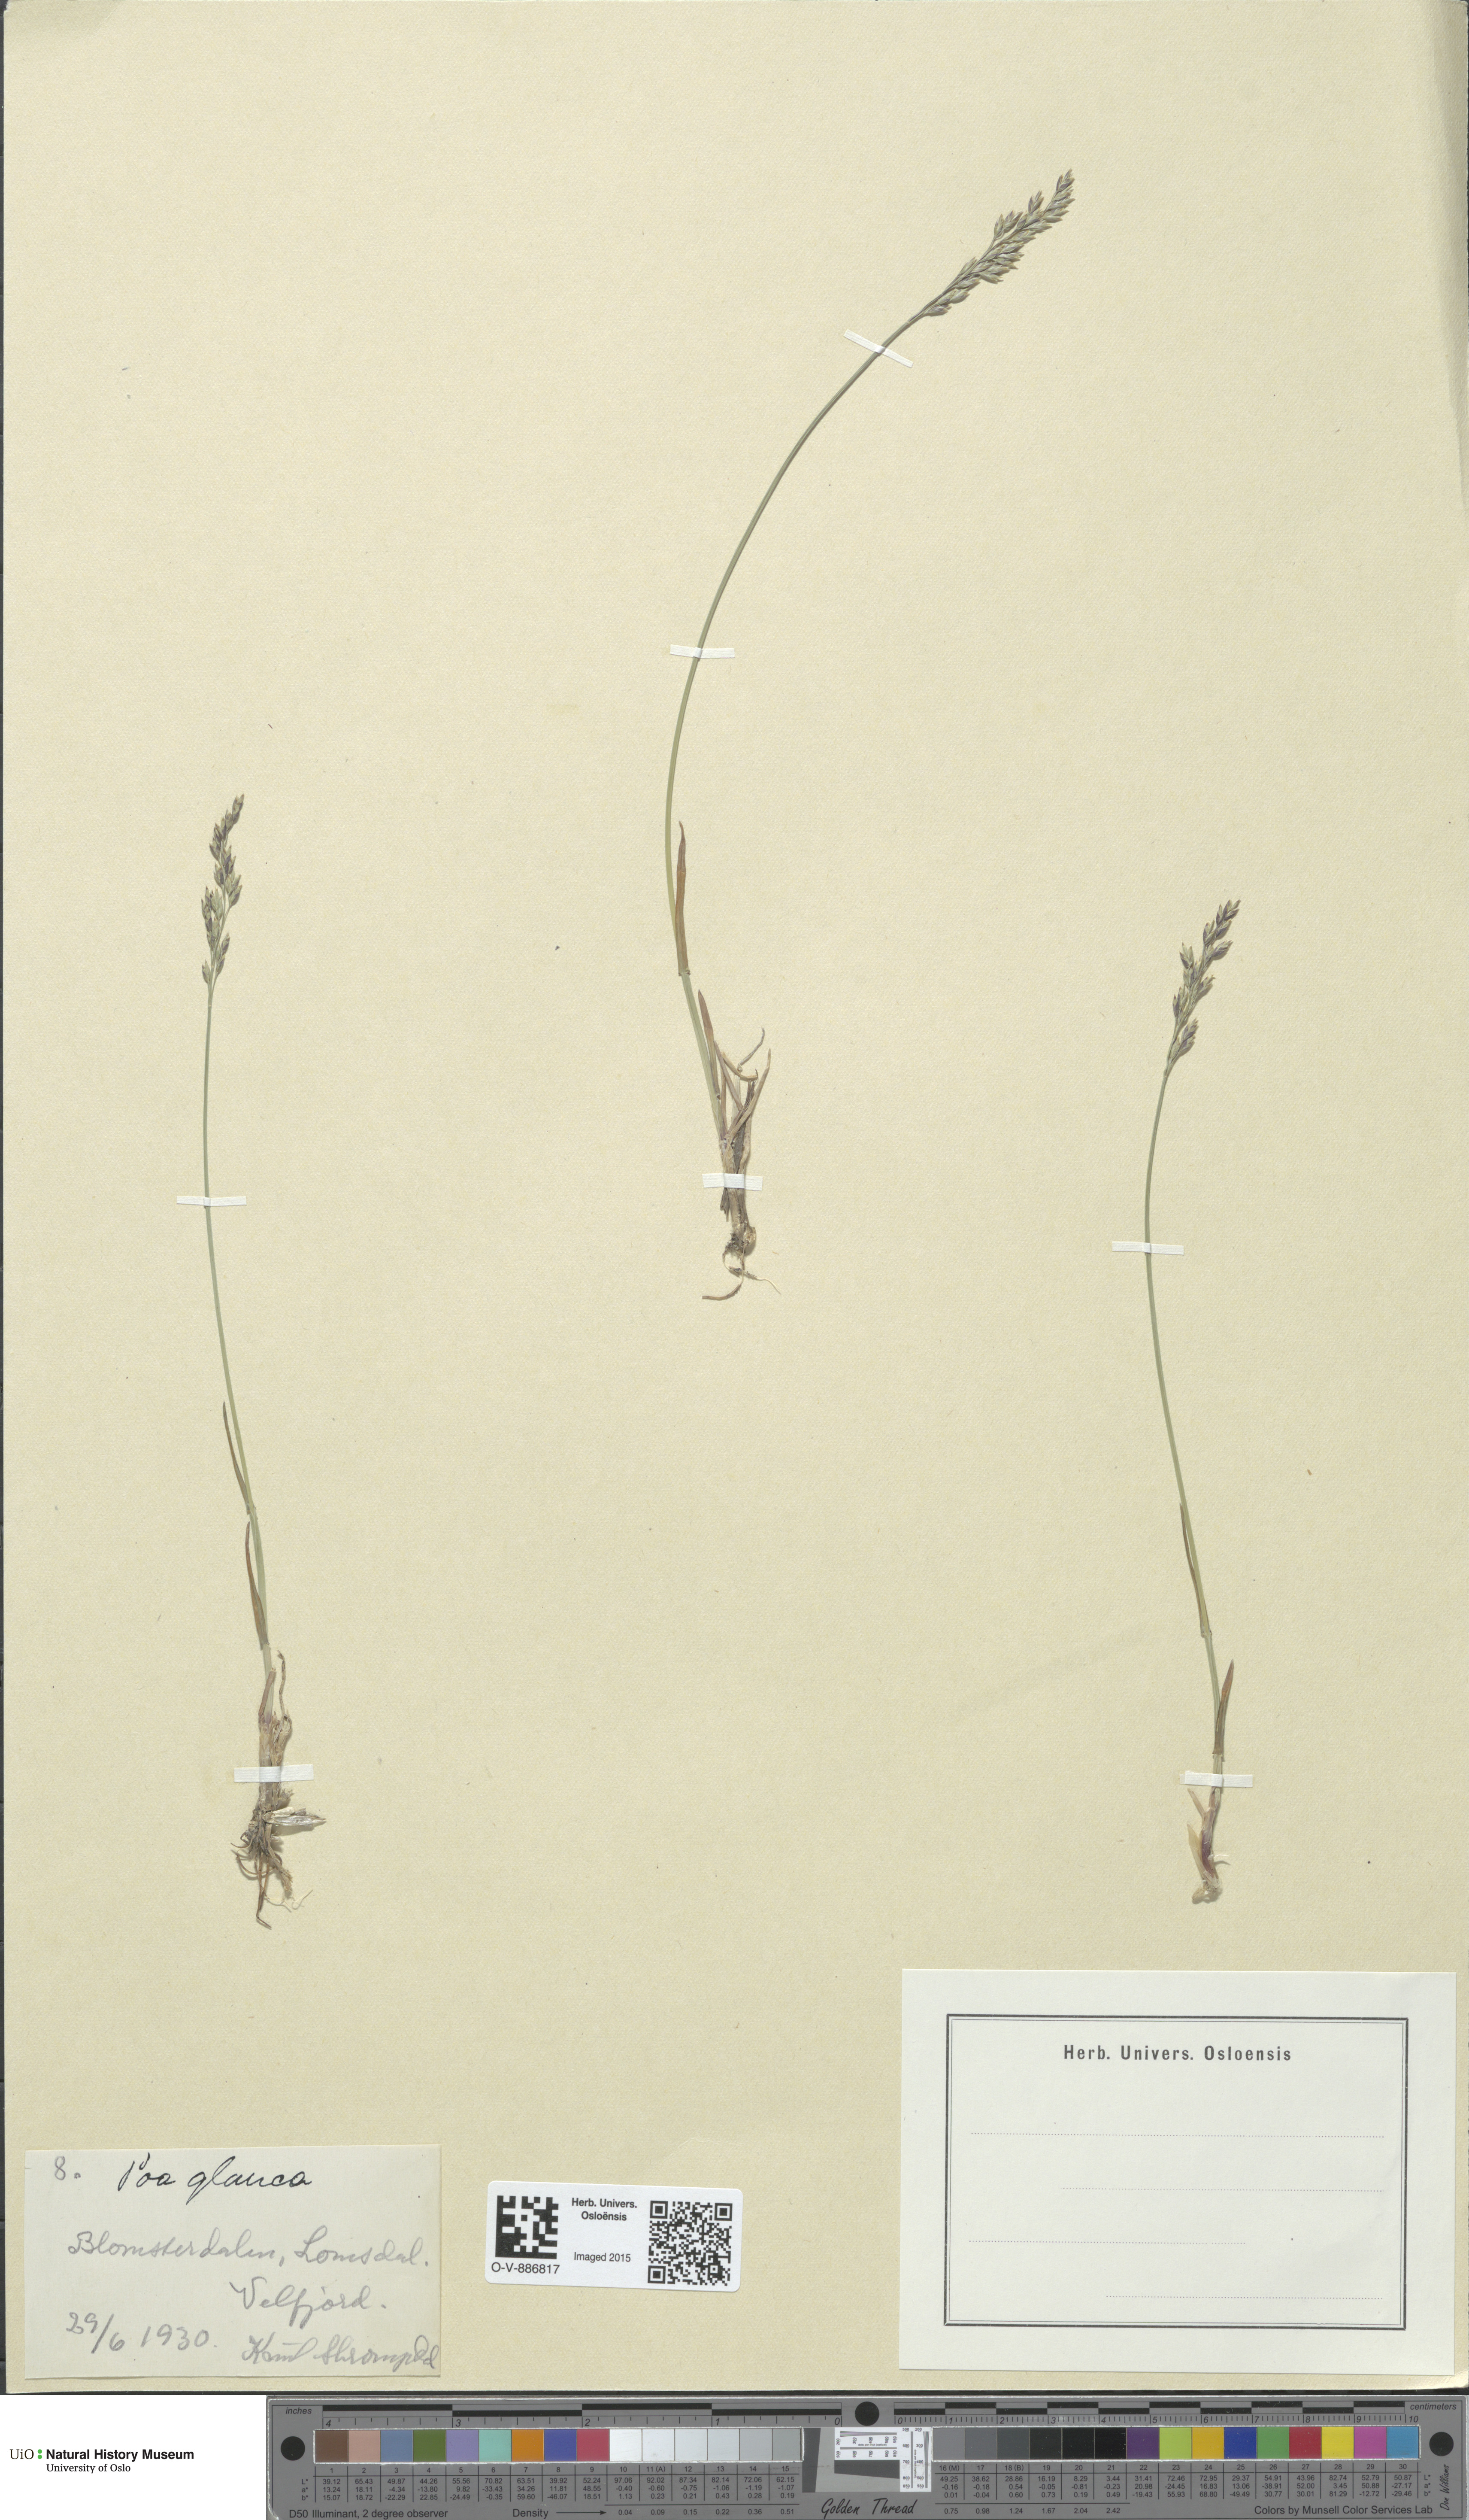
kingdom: Plantae
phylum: Tracheophyta
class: Liliopsida
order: Poales
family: Poaceae
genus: Poa
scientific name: Poa glauca
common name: Glaucous bluegrass
